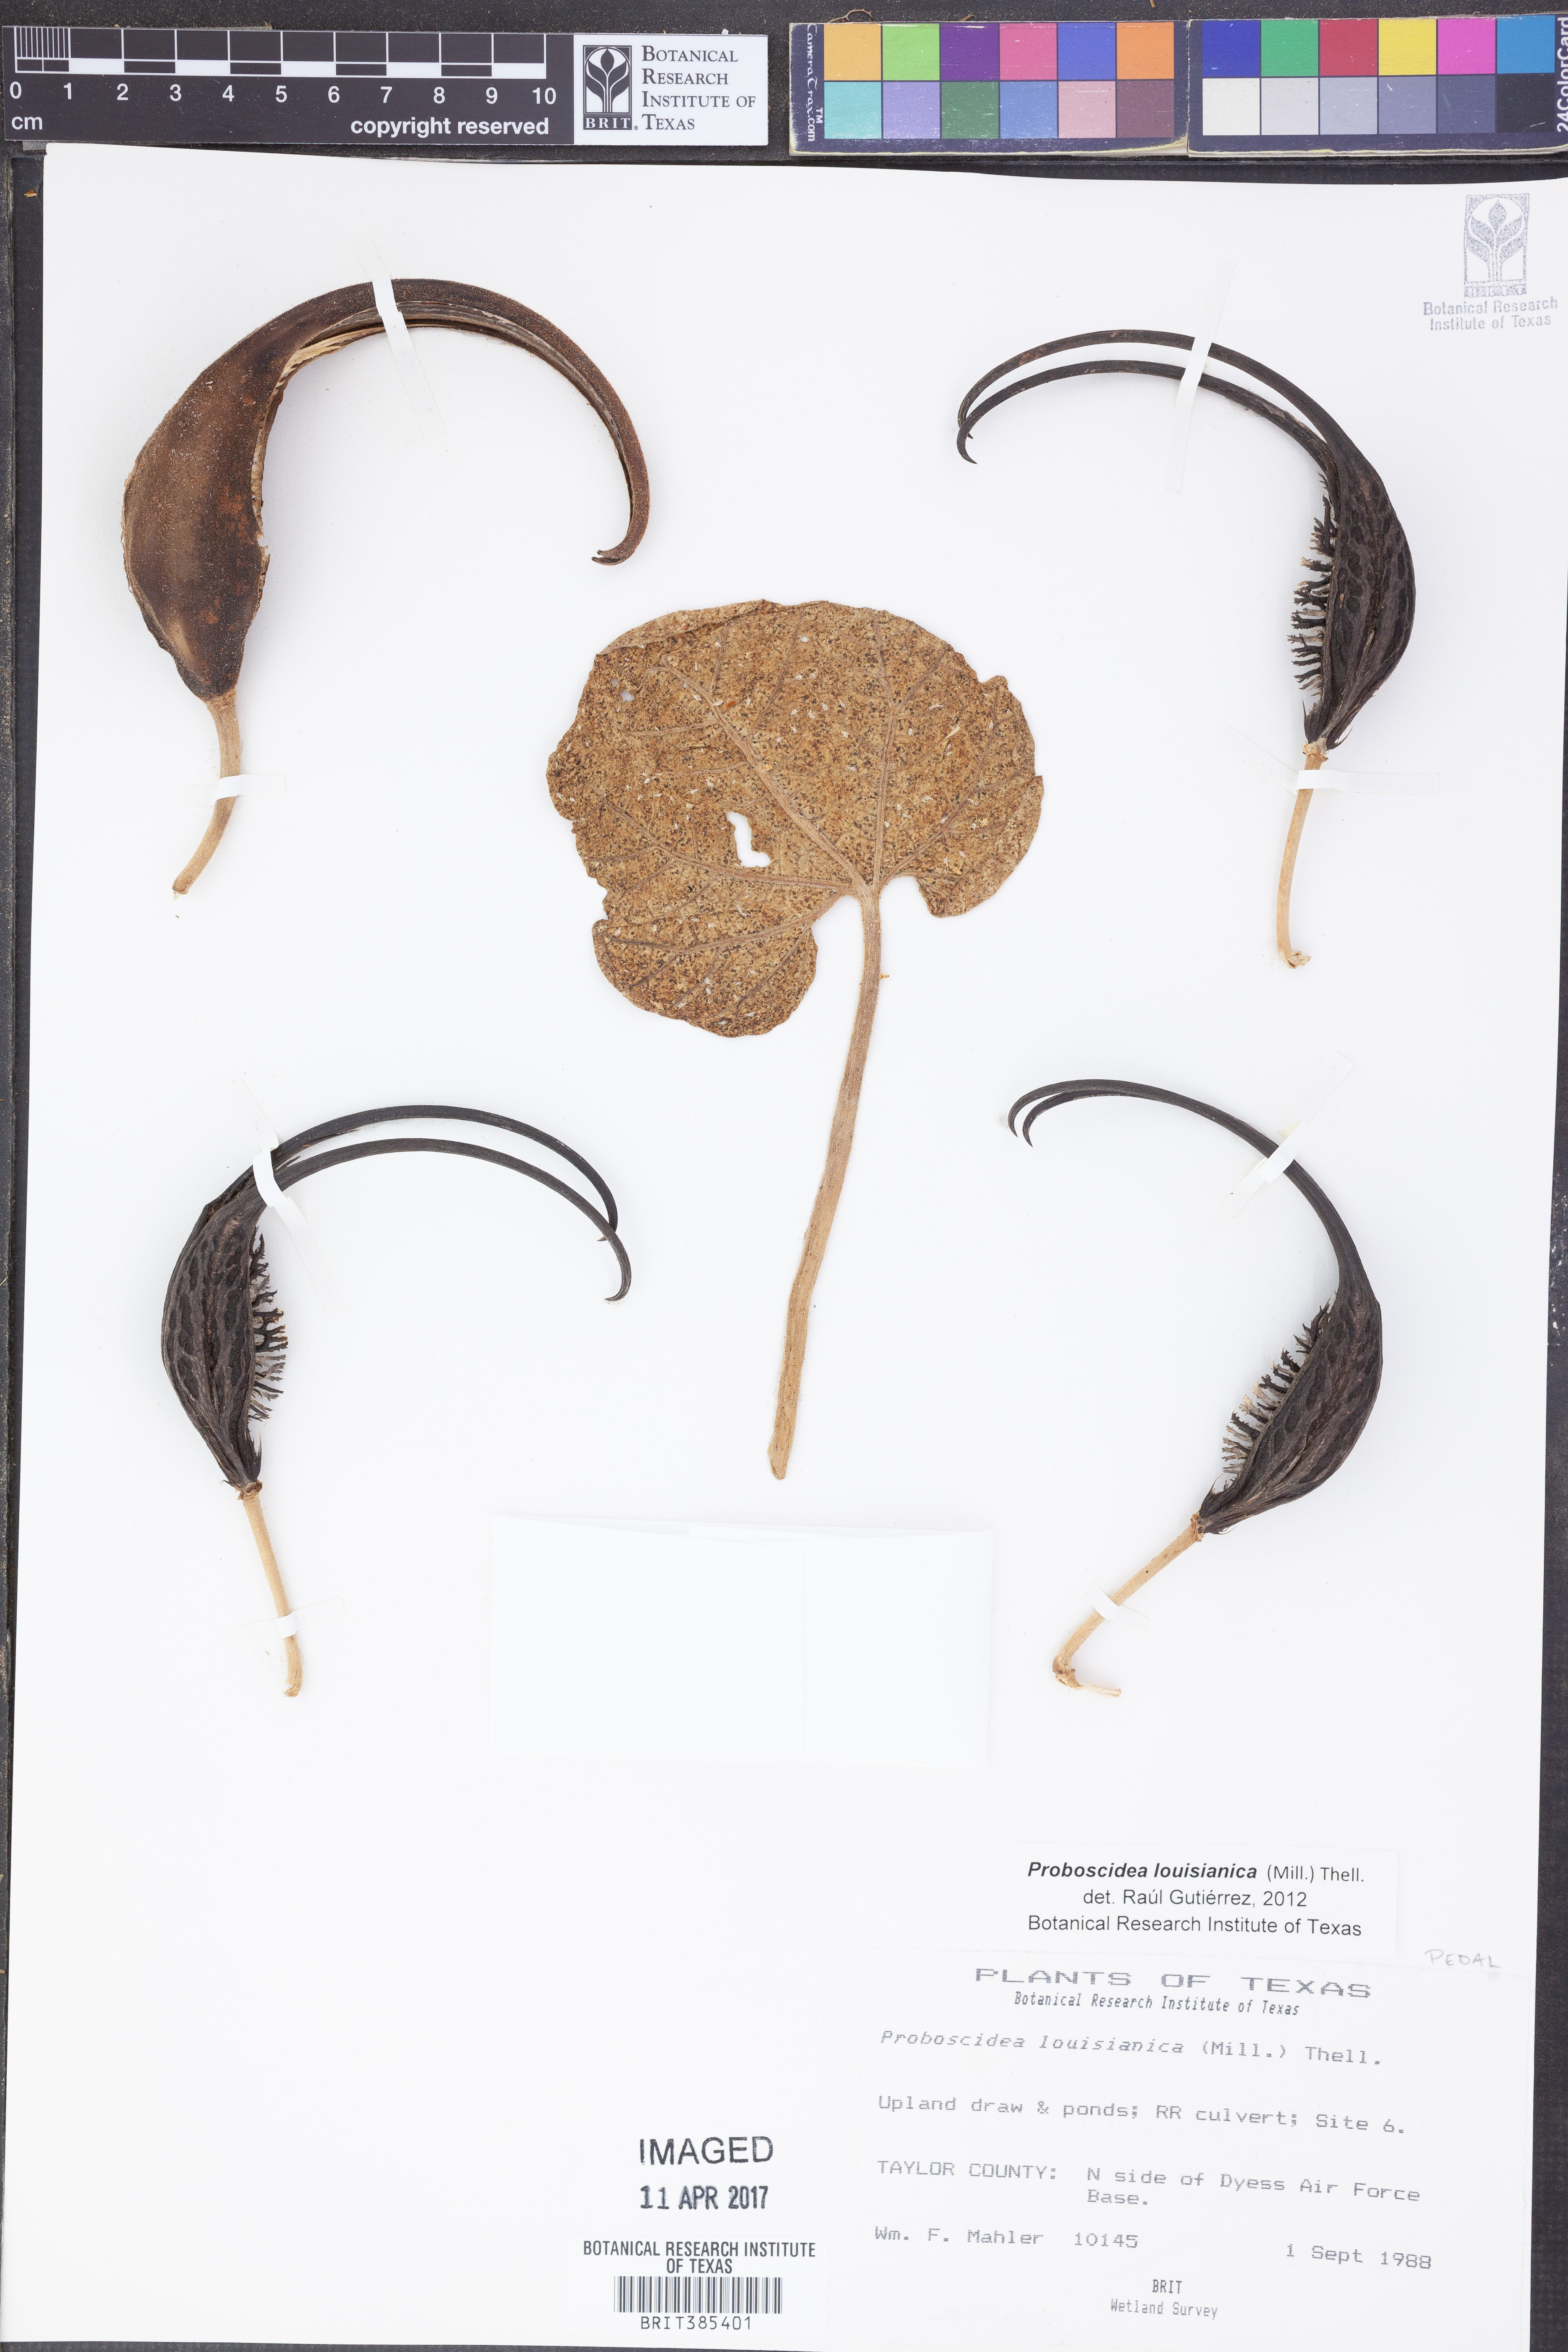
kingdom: Plantae
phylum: Tracheophyta
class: Magnoliopsida
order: Lamiales
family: Martyniaceae
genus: Proboscidea
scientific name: Proboscidea louisianica
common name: Elephant tusks
